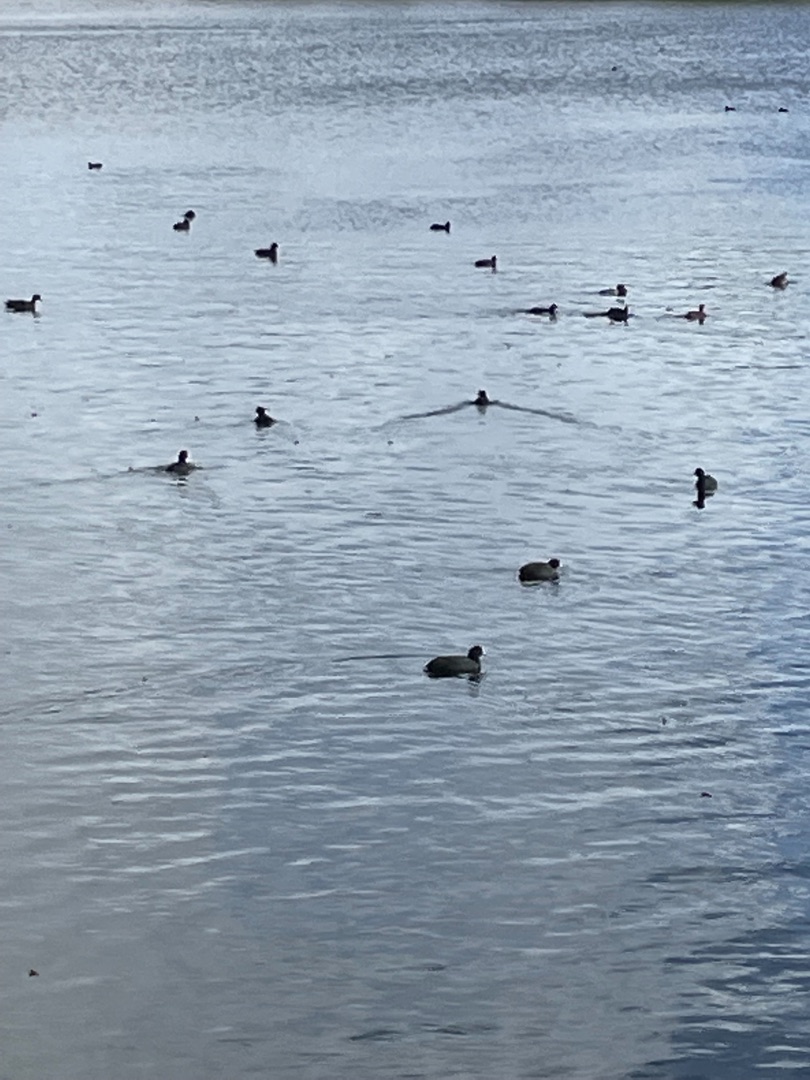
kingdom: Animalia
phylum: Chordata
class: Aves
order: Gruiformes
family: Rallidae
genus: Fulica
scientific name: Fulica atra
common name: Blishøne
